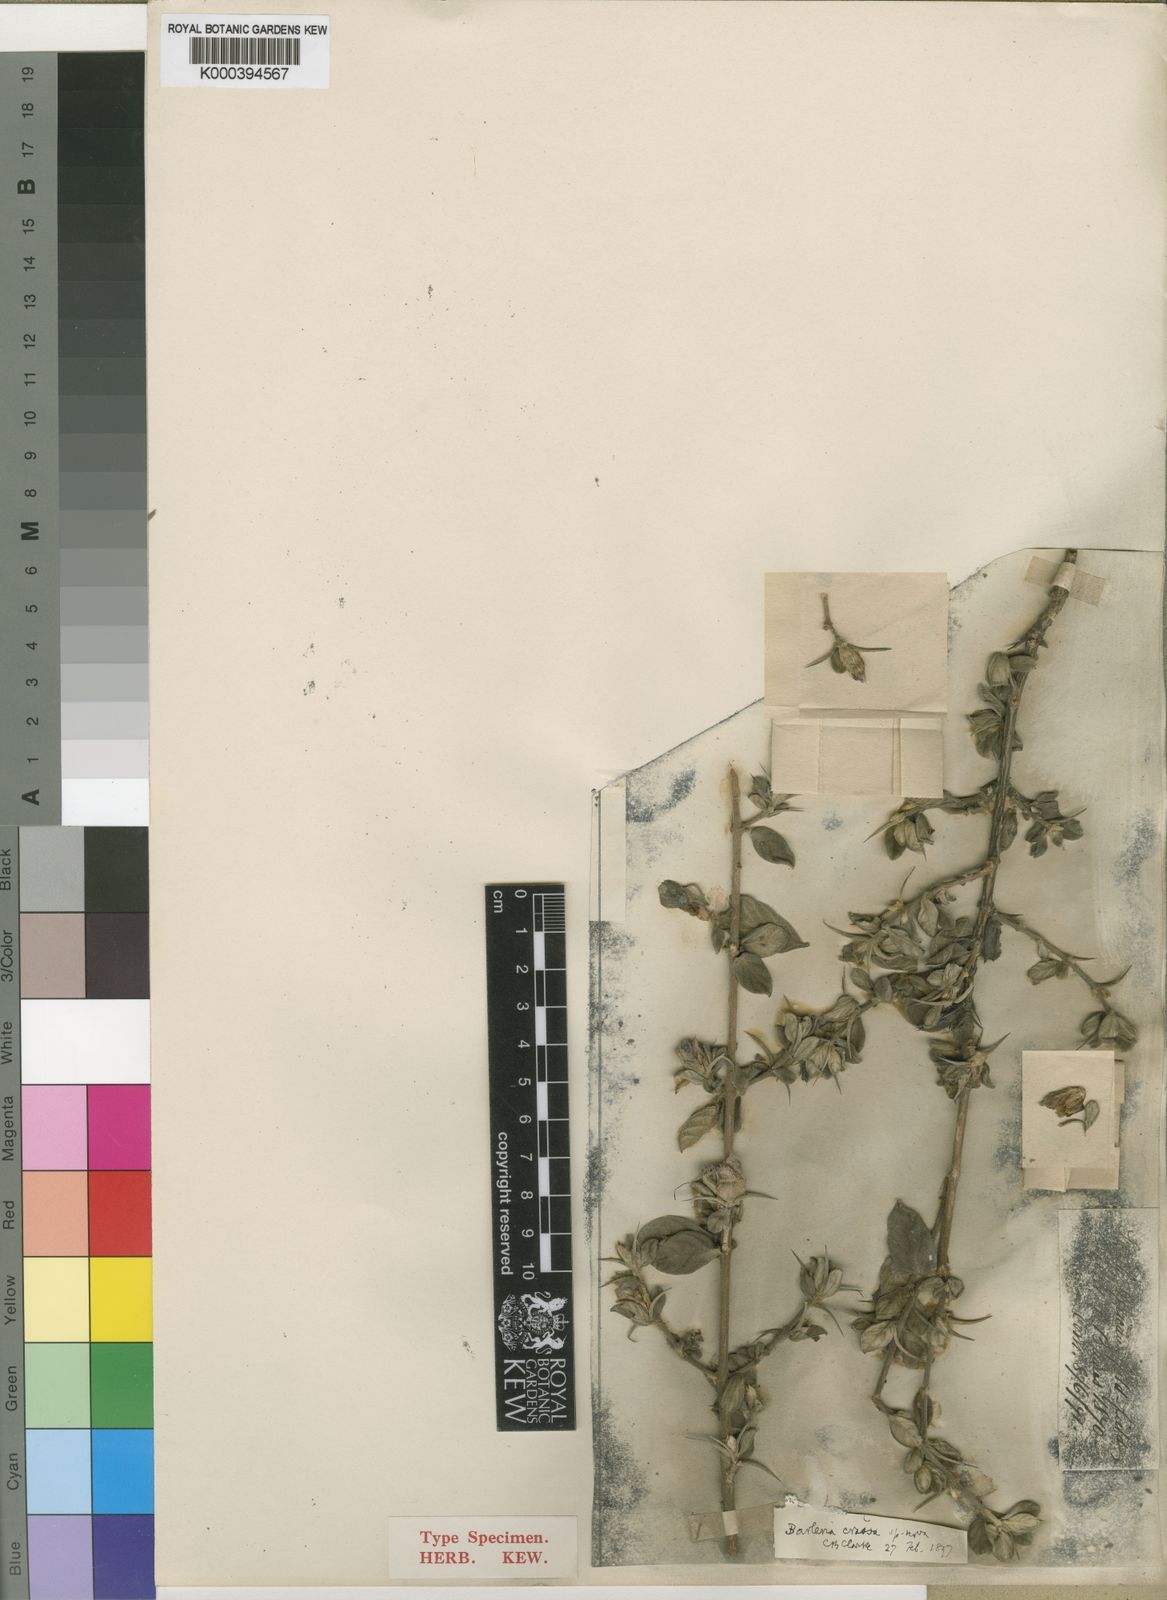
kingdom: Plantae
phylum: Tracheophyta
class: Magnoliopsida
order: Lamiales
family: Acanthaceae
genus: Barleria
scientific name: Barleria crassa
